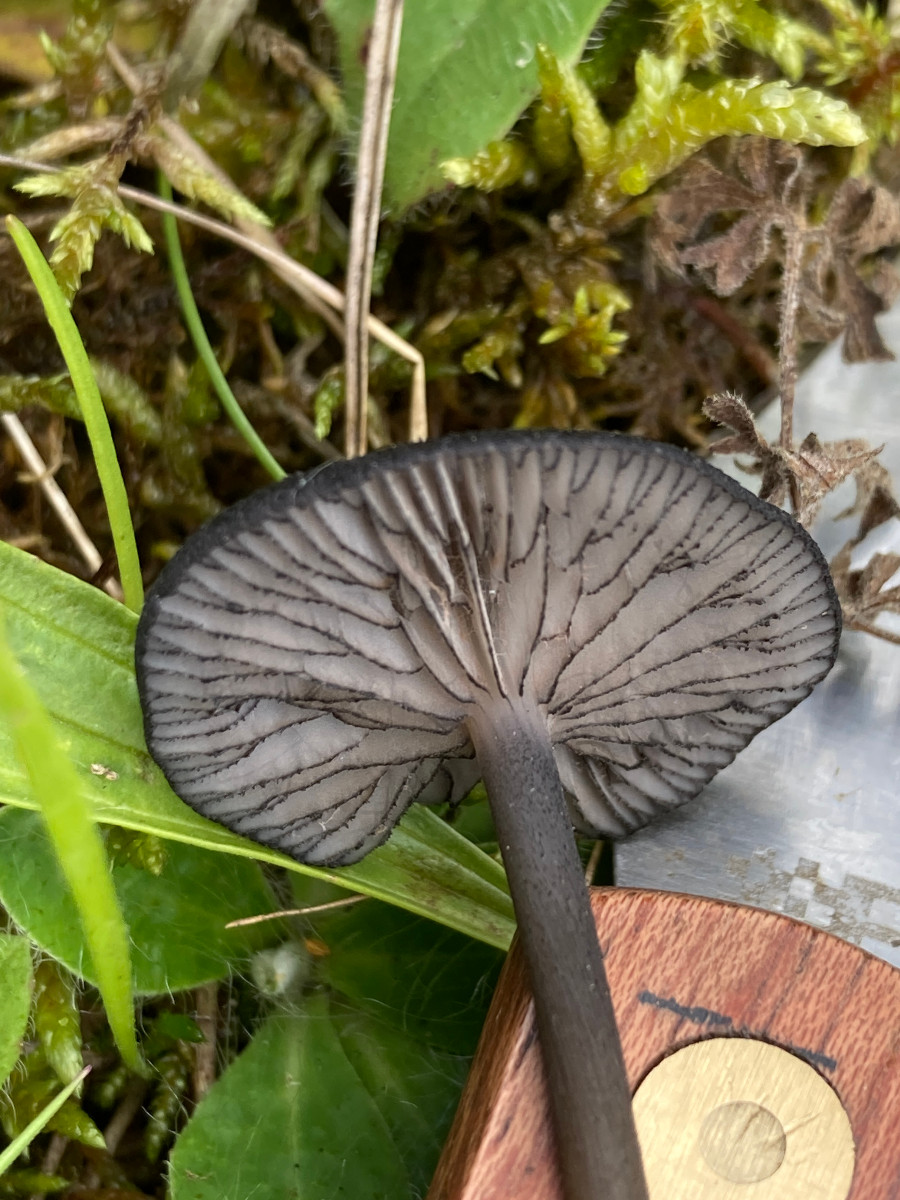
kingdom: Fungi
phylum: Basidiomycota
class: Agaricomycetes
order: Agaricales
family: Entolomataceae
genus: Entoloma
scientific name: Entoloma
